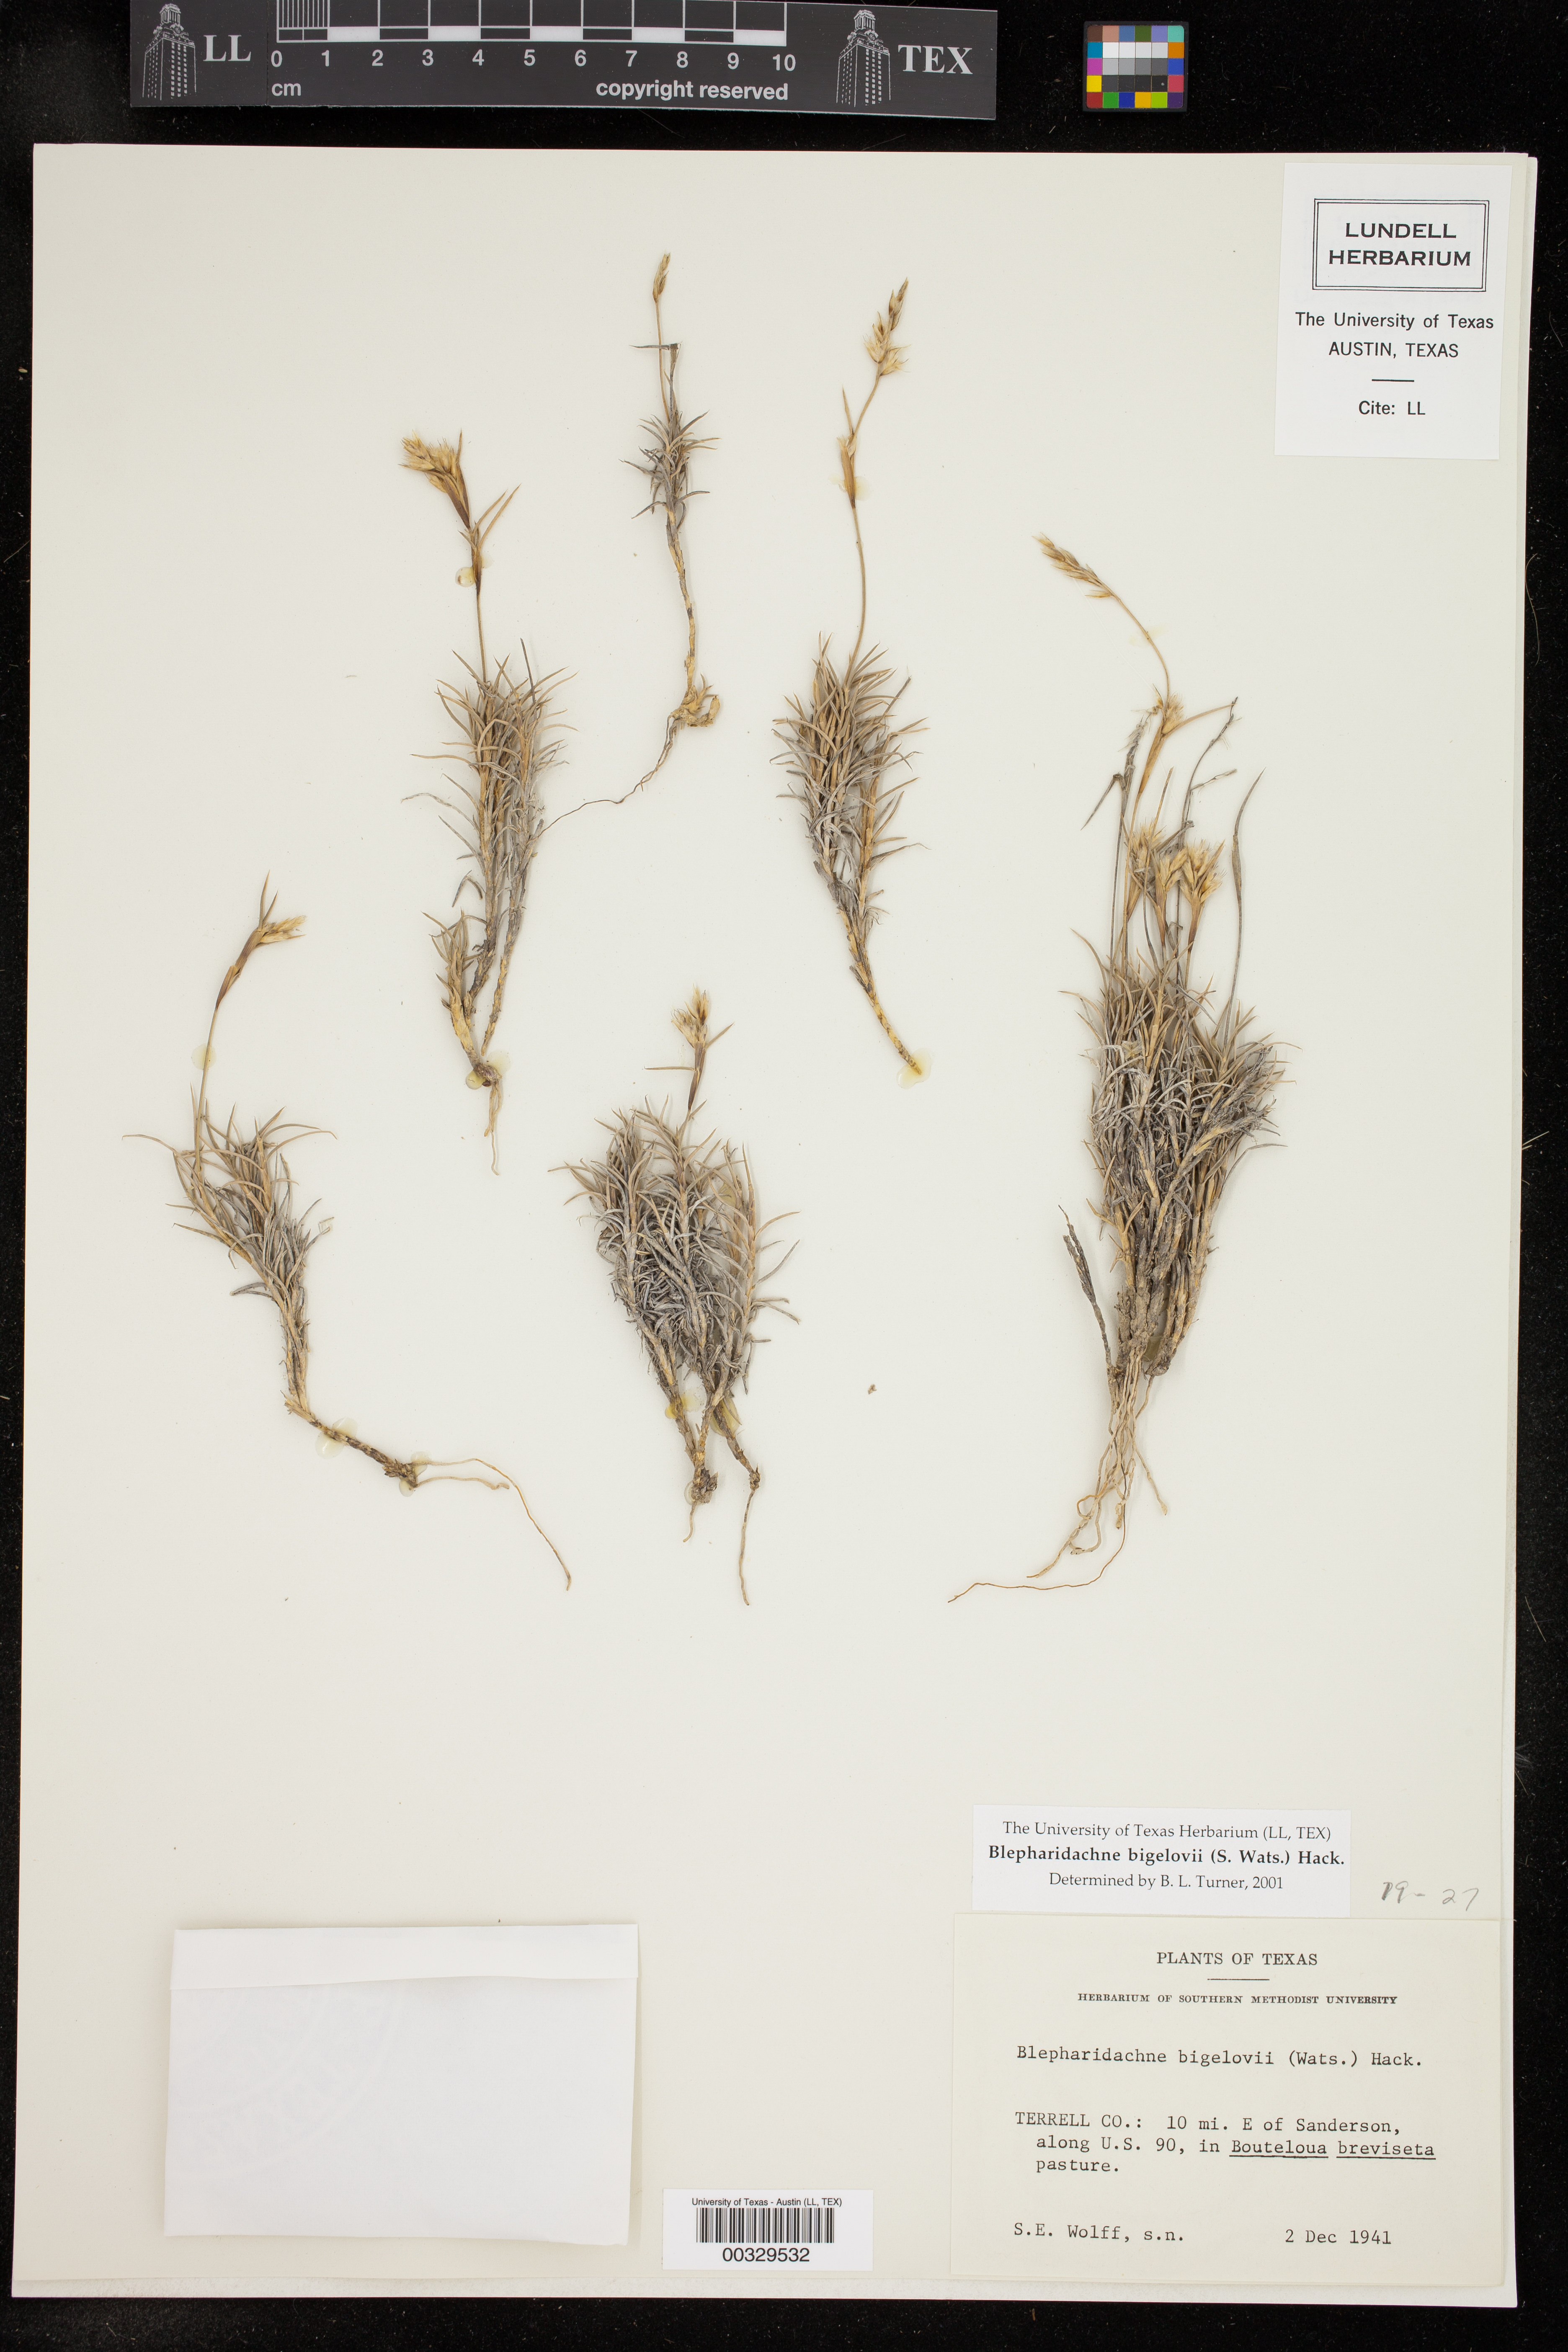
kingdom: Plantae
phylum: Tracheophyta
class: Liliopsida
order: Poales
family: Poaceae
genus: Blepharidachne
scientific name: Blepharidachne bigelovii
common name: Bigelow's desert grass
